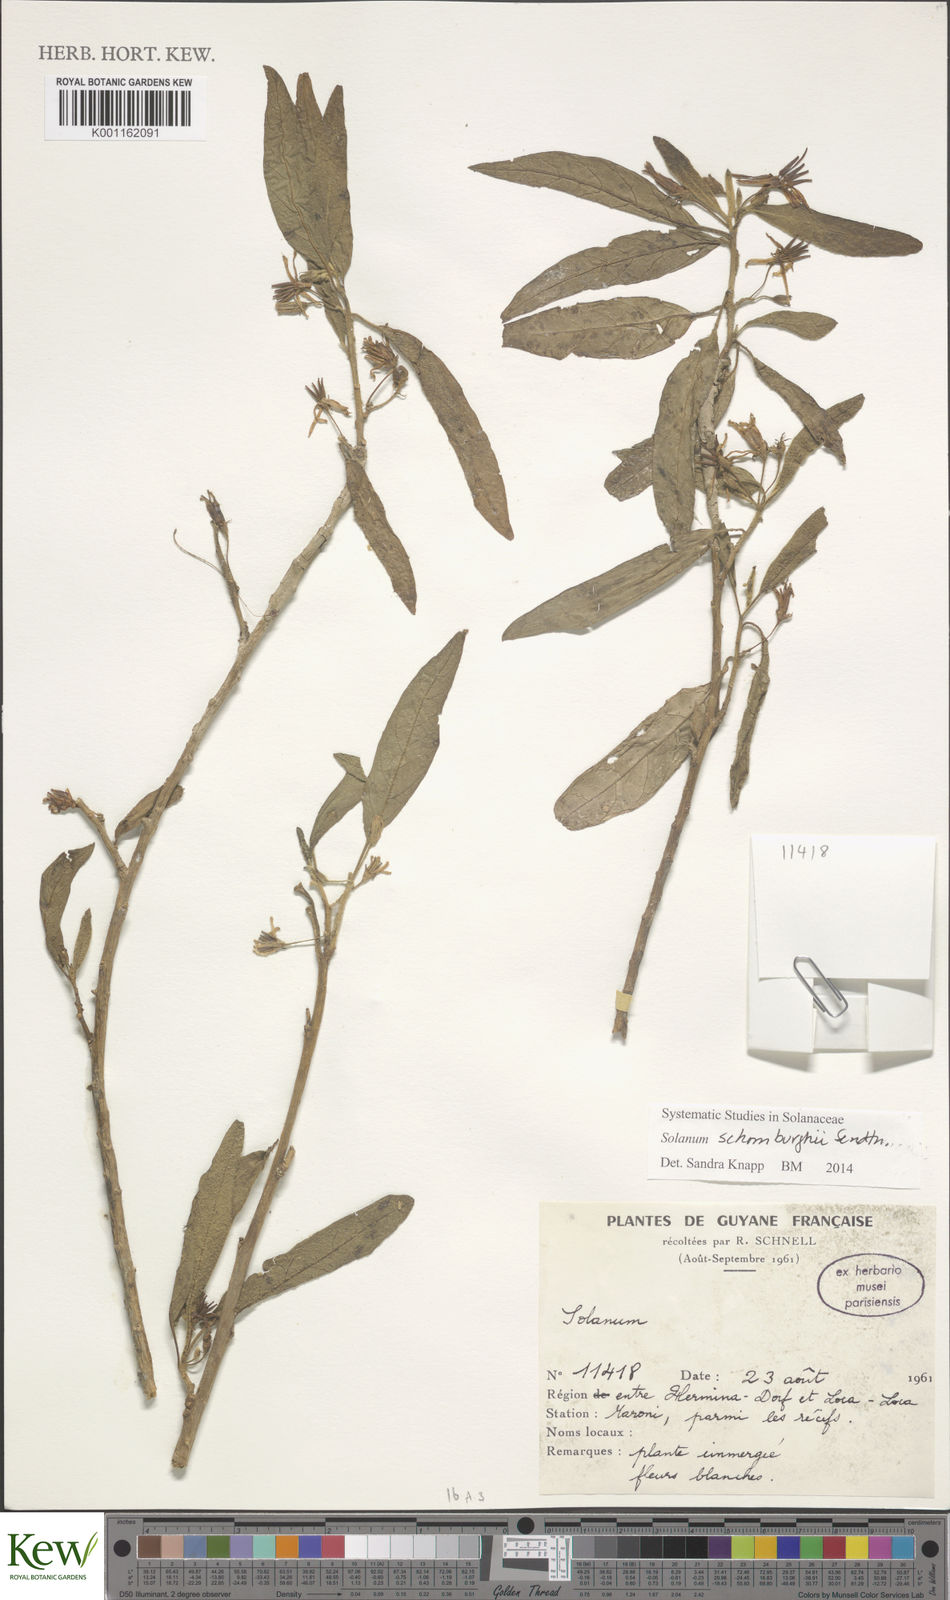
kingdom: Plantae
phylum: Tracheophyta
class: Magnoliopsida
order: Solanales
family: Solanaceae
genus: Solanum
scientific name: Solanum
